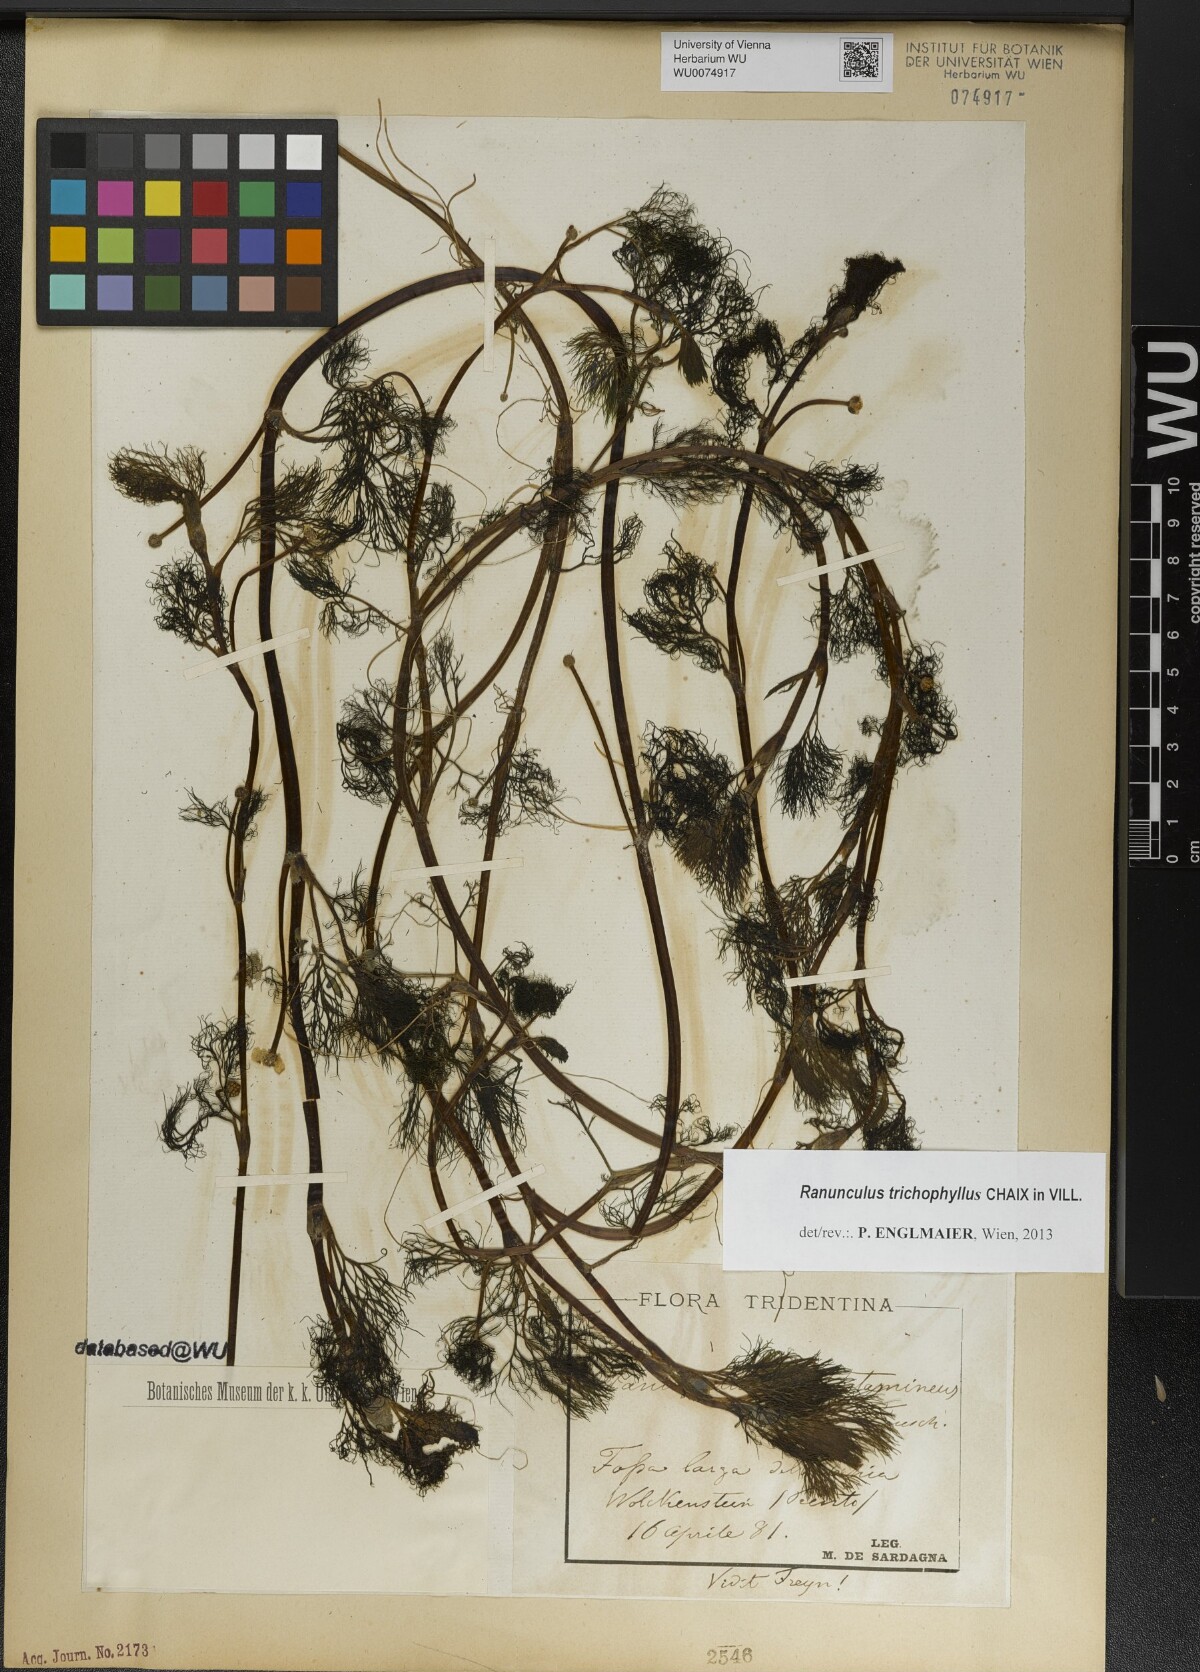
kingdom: Plantae
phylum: Tracheophyta
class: Magnoliopsida
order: Ranunculales
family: Ranunculaceae
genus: Ranunculus
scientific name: Ranunculus trichophyllus
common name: Thread-leaved water-crowfoot
